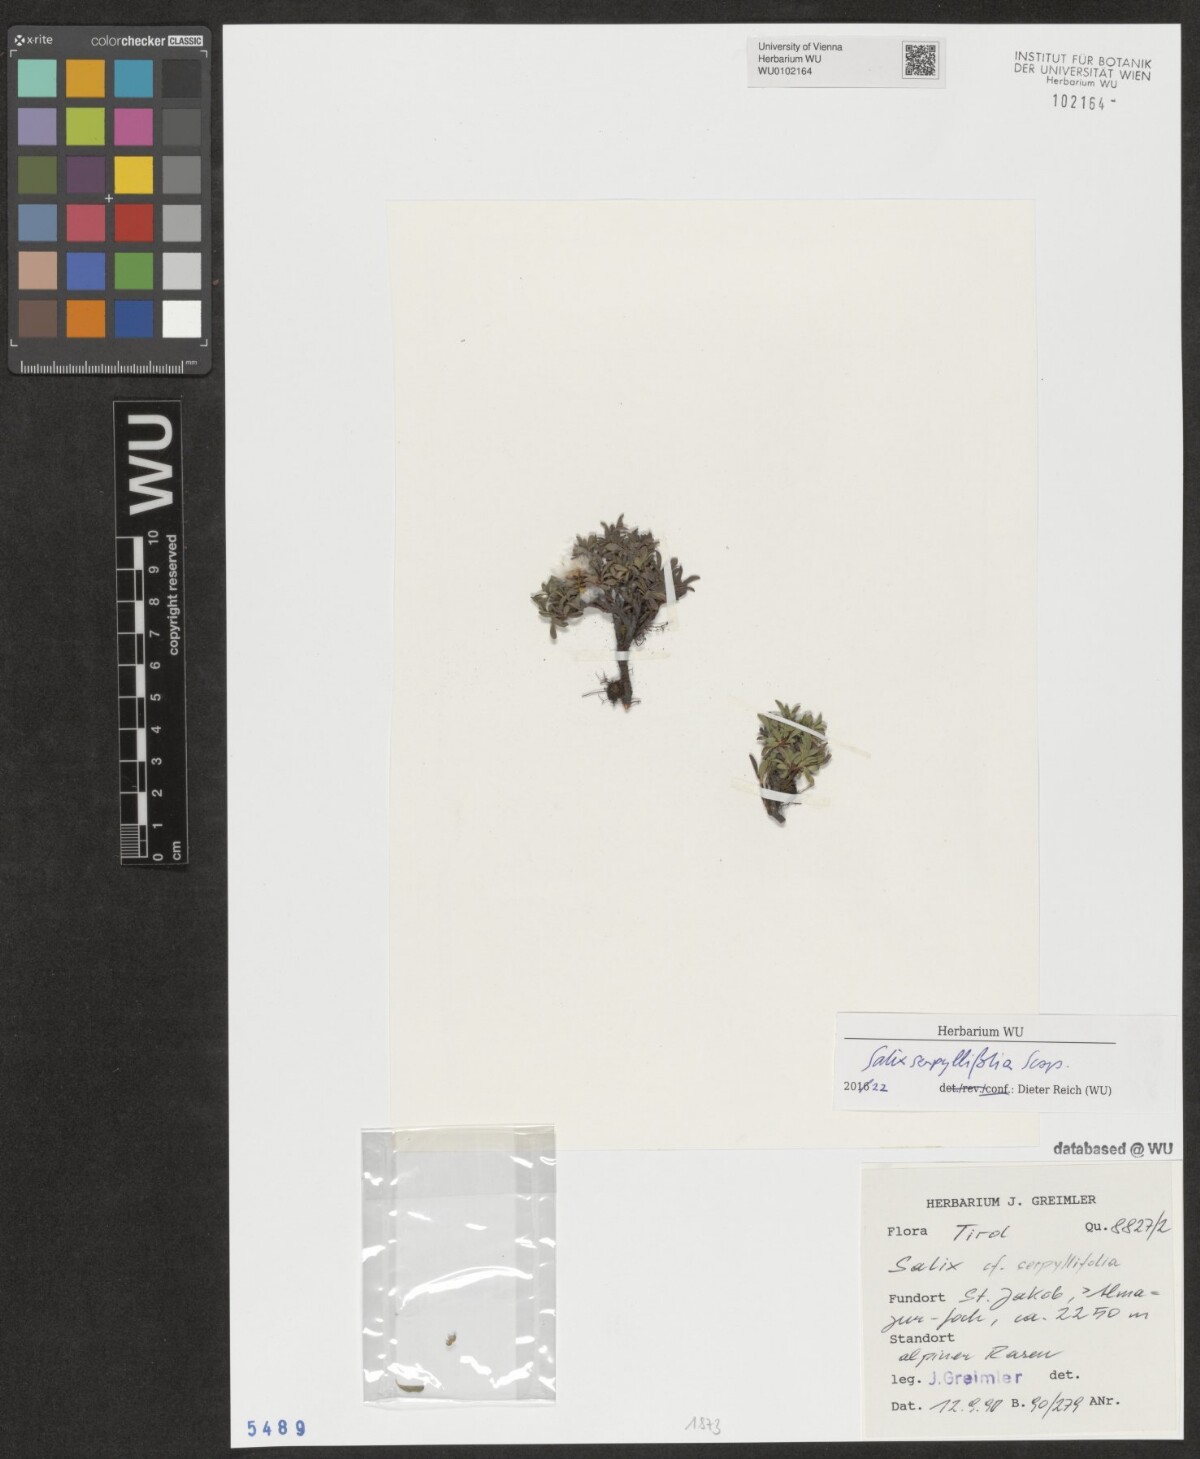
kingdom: Plantae
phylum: Tracheophyta
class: Magnoliopsida
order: Malpighiales
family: Salicaceae
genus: Salix
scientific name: Salix serpillifolia
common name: Thyme-leaf willow
